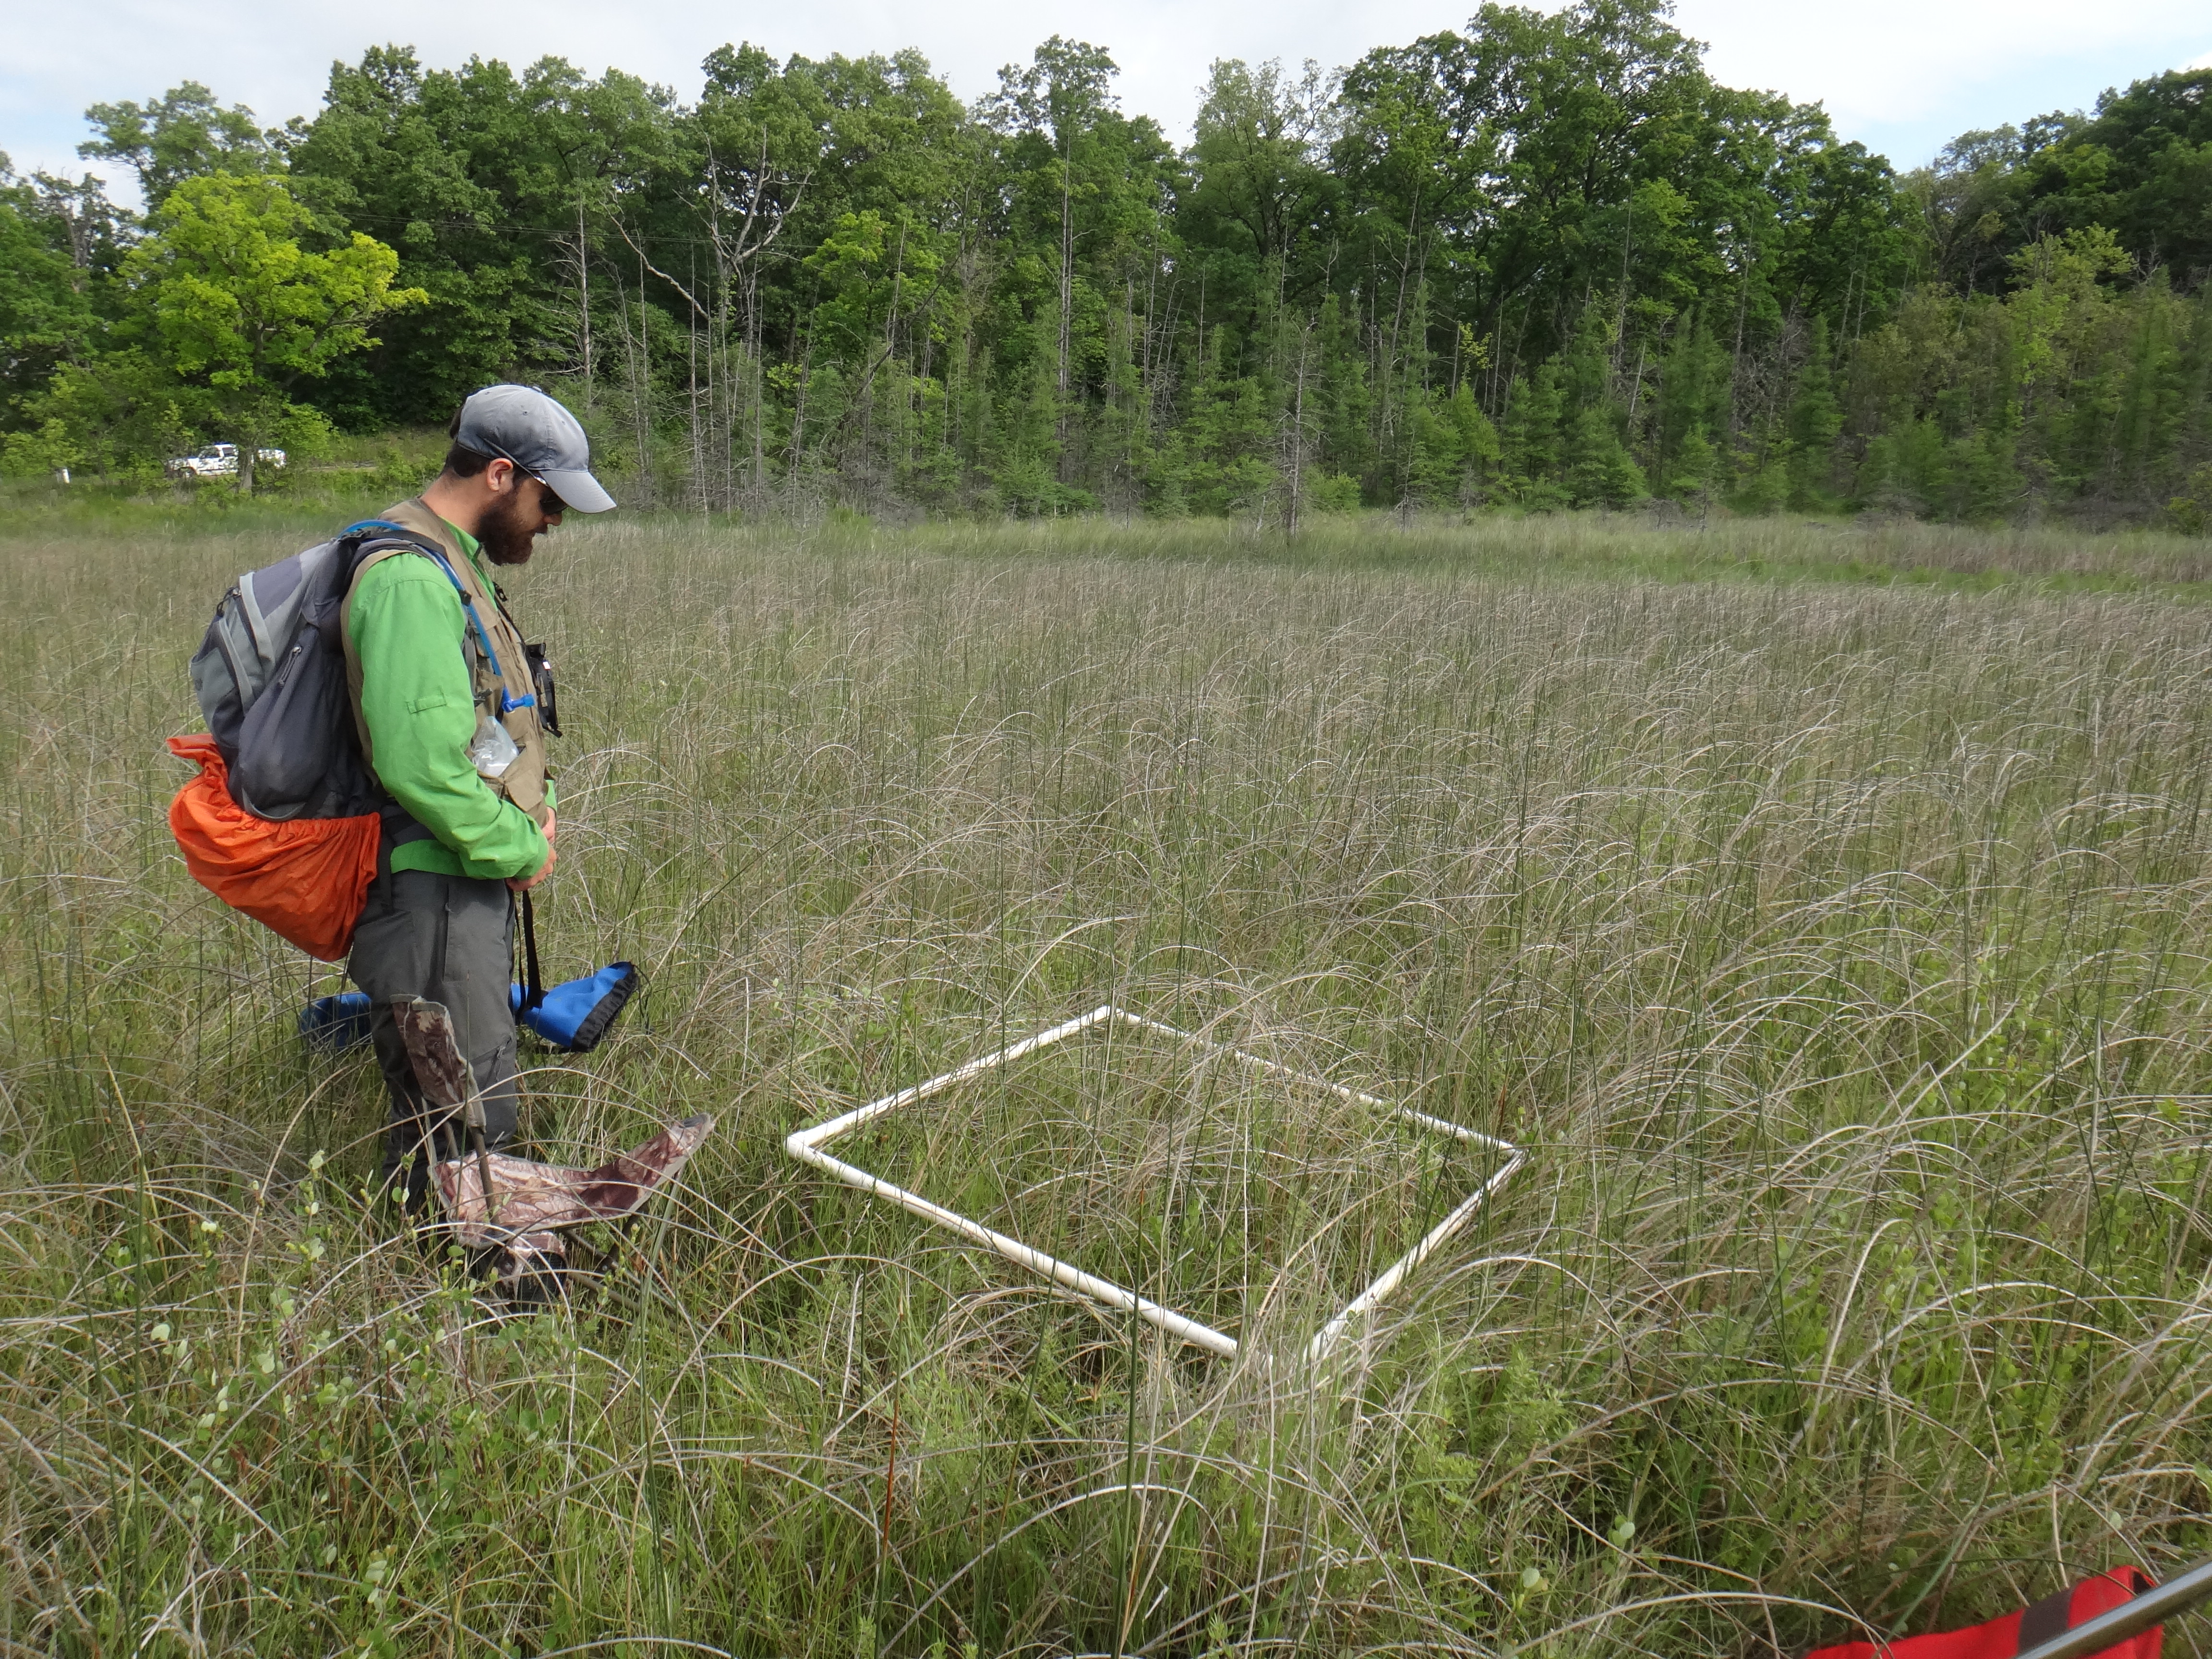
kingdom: Plantae
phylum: Tracheophyta
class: Magnoliopsida
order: Asterales
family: Asteraceae
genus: Silphium
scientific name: Silphium terebinthinaceum
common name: Basal-leaf rosinweed
